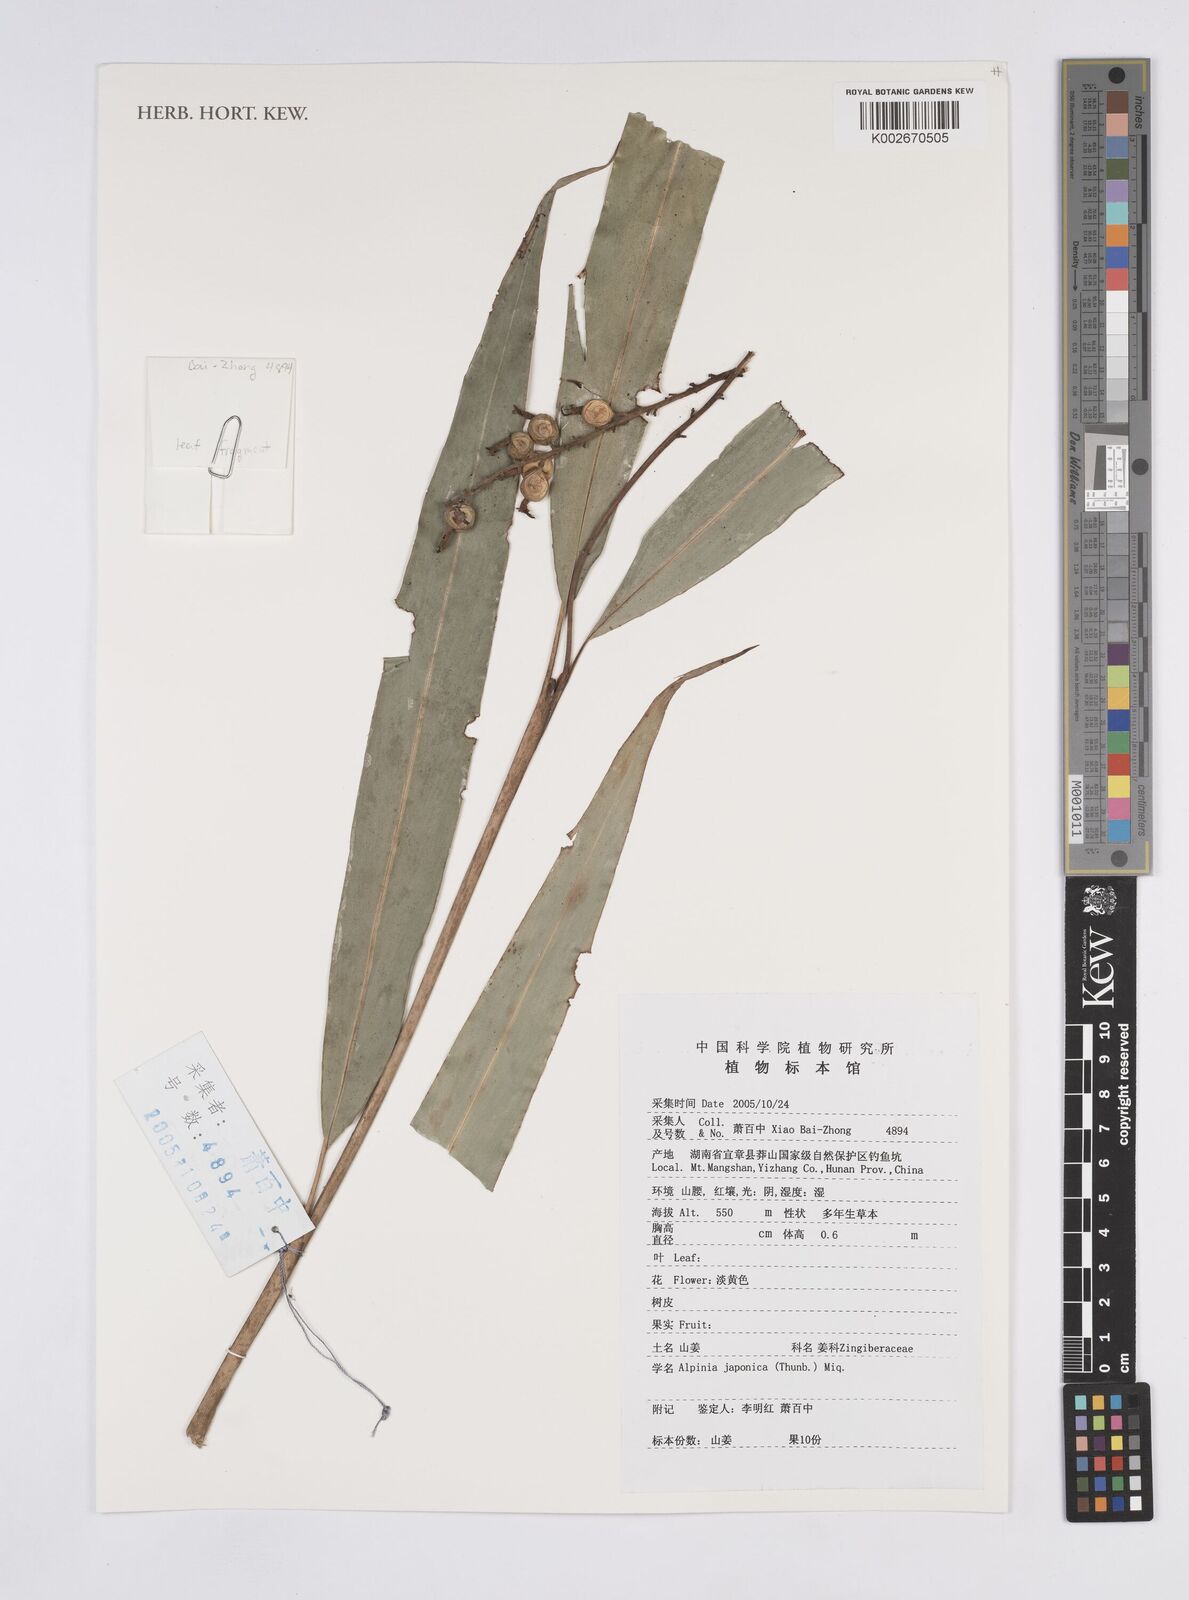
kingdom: Plantae
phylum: Tracheophyta
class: Liliopsida
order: Zingiberales
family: Zingiberaceae
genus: Alpinia
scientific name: Alpinia japonica
